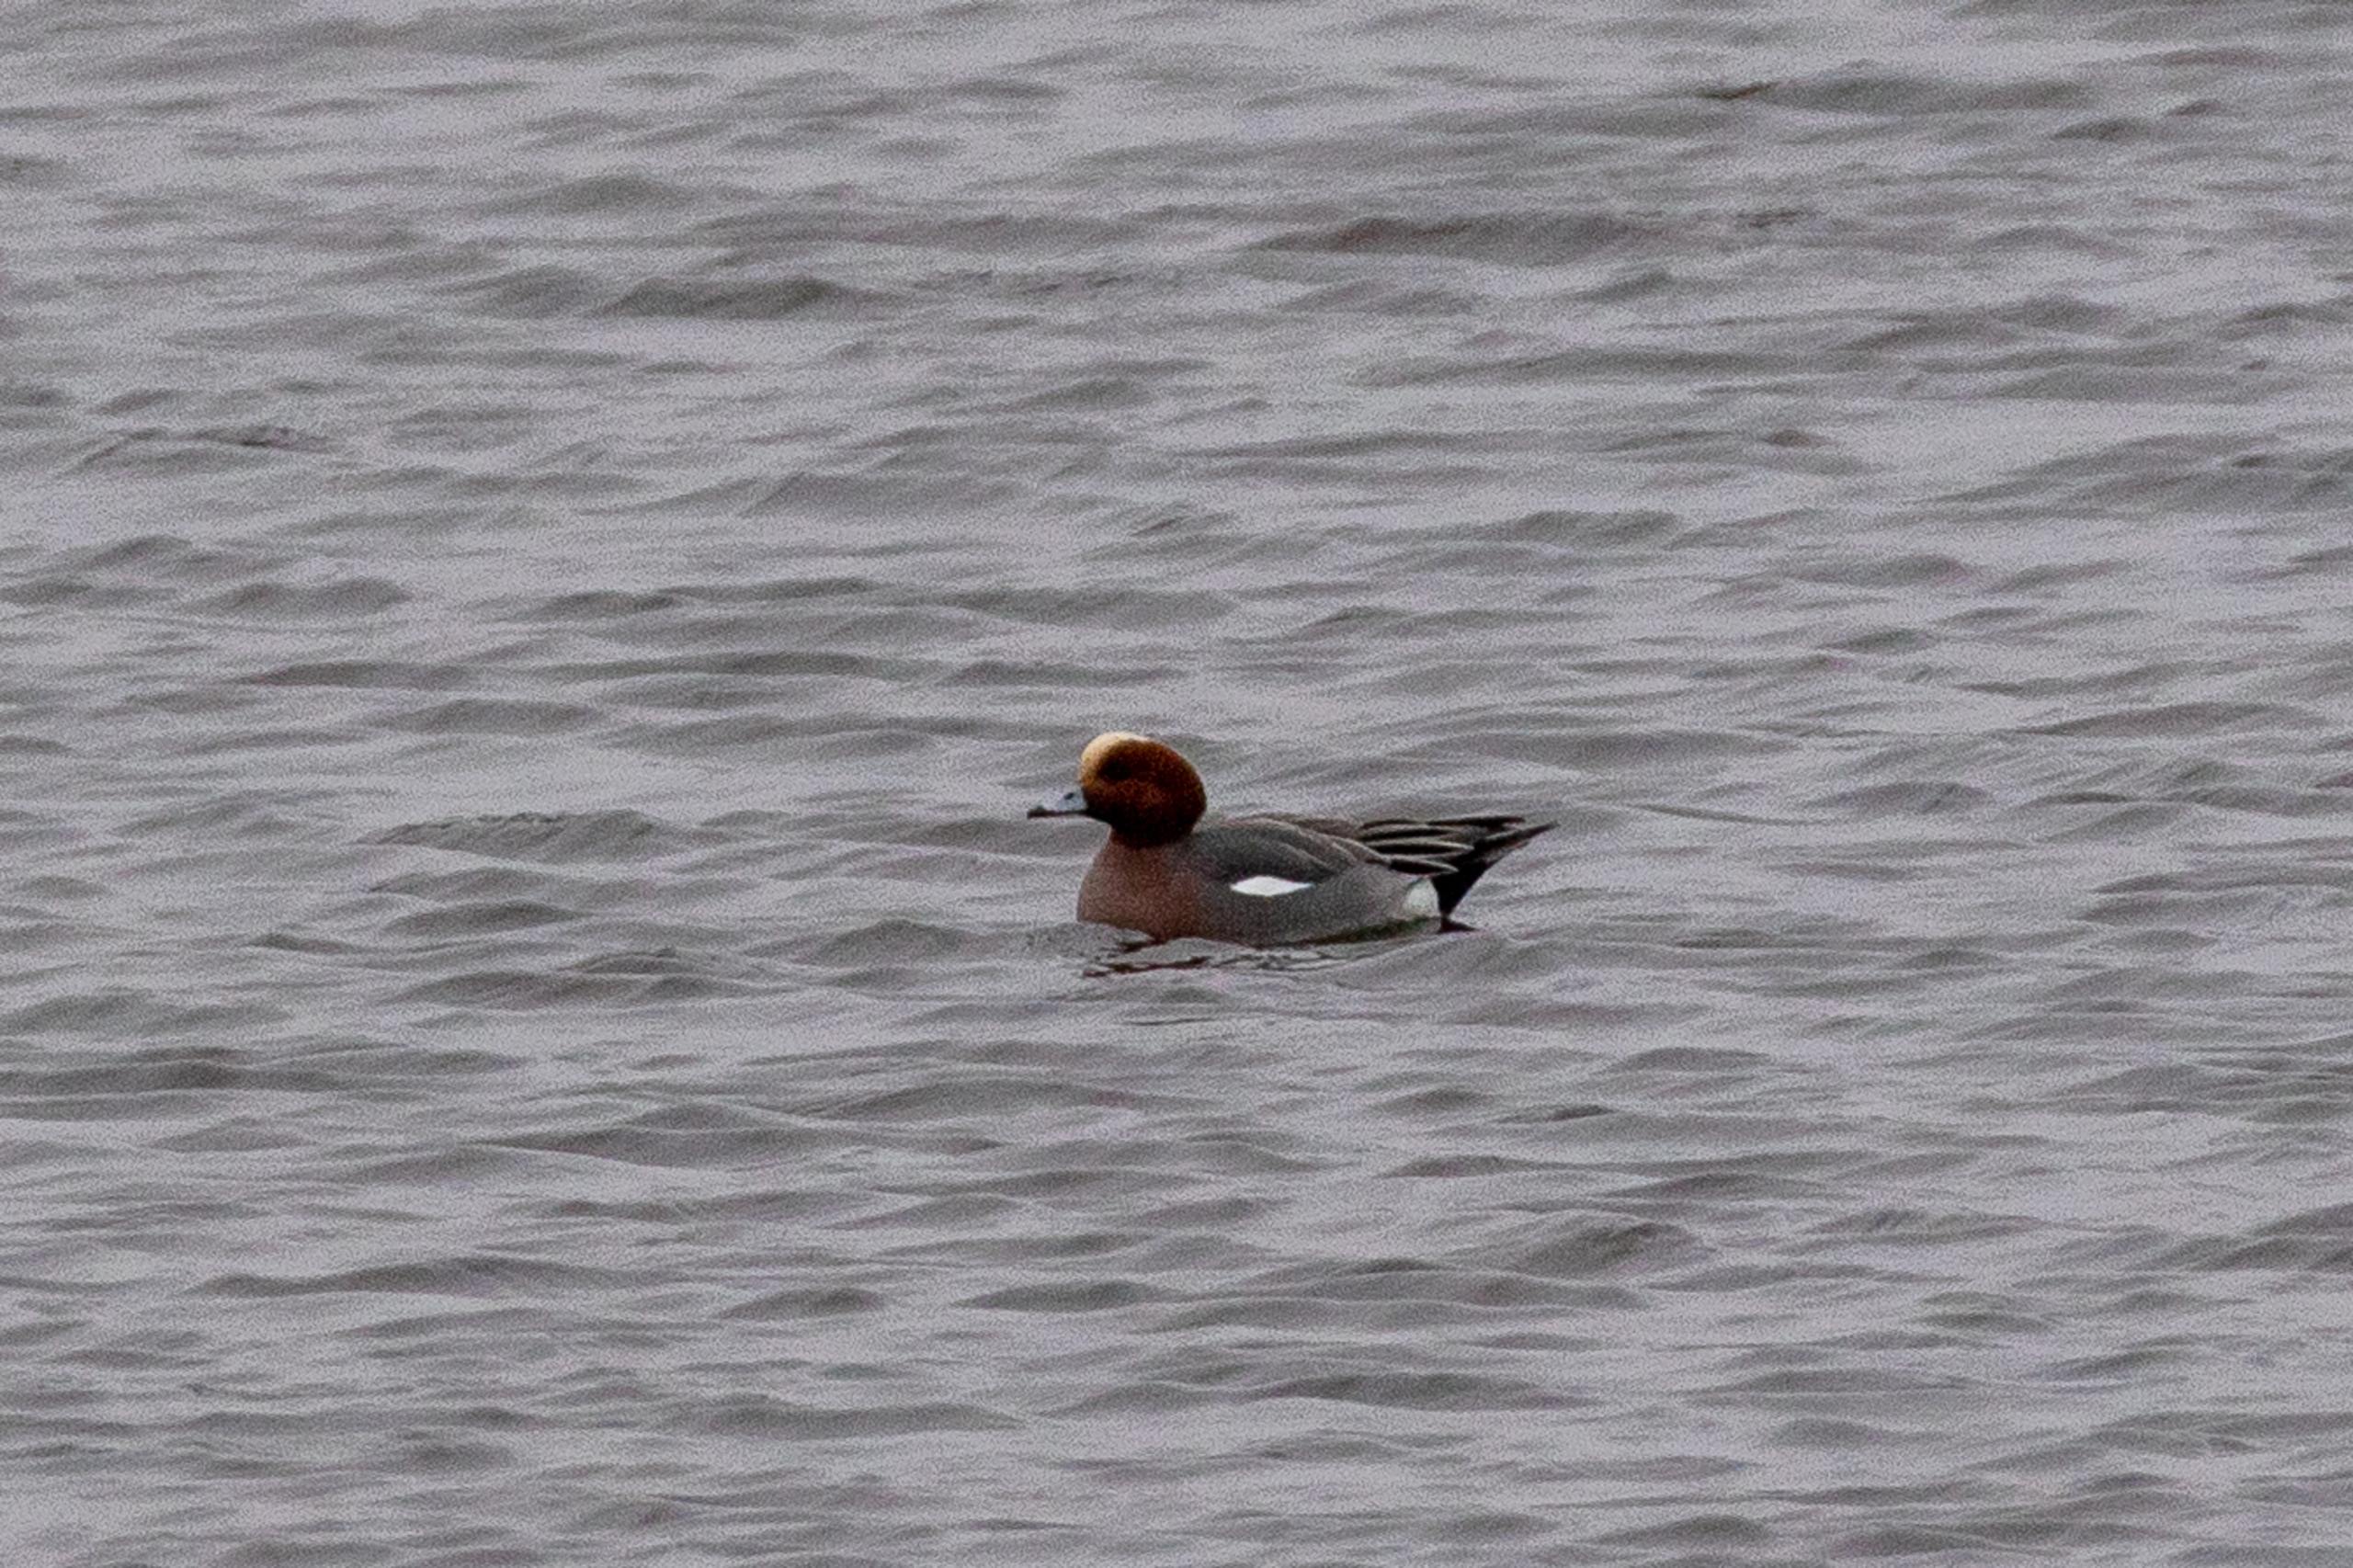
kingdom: Animalia
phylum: Chordata
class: Aves
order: Anseriformes
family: Anatidae
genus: Mareca
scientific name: Mareca penelope
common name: Pibeand
